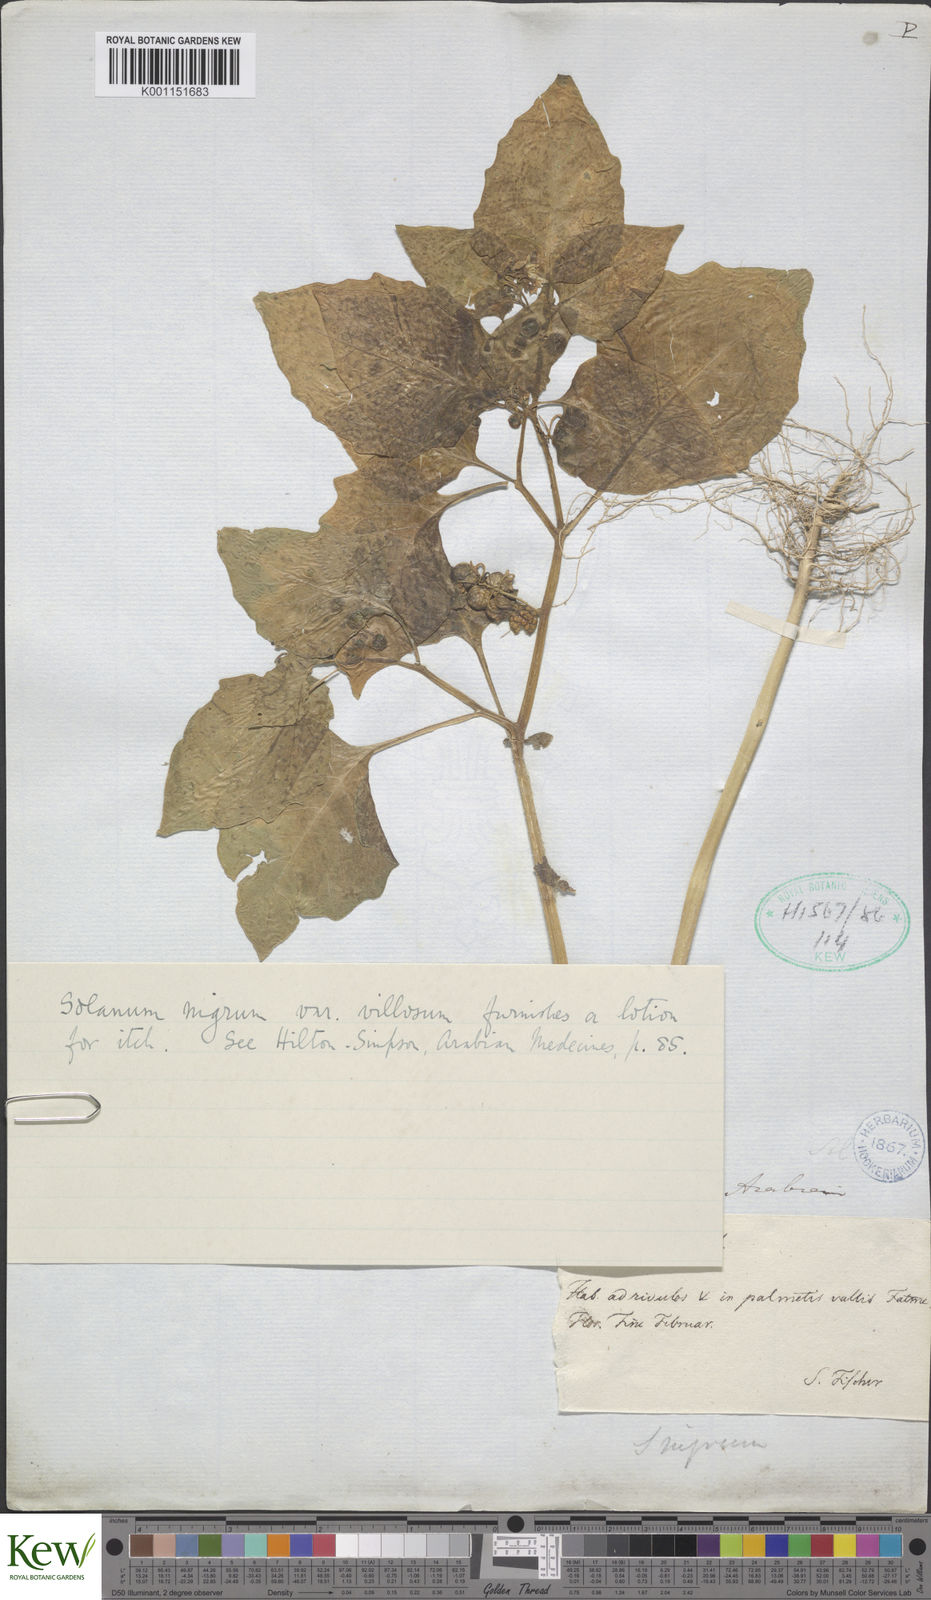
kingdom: Plantae
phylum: Tracheophyta
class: Magnoliopsida
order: Solanales
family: Solanaceae
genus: Solanum
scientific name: Solanum nigrum
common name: Black nightshade
